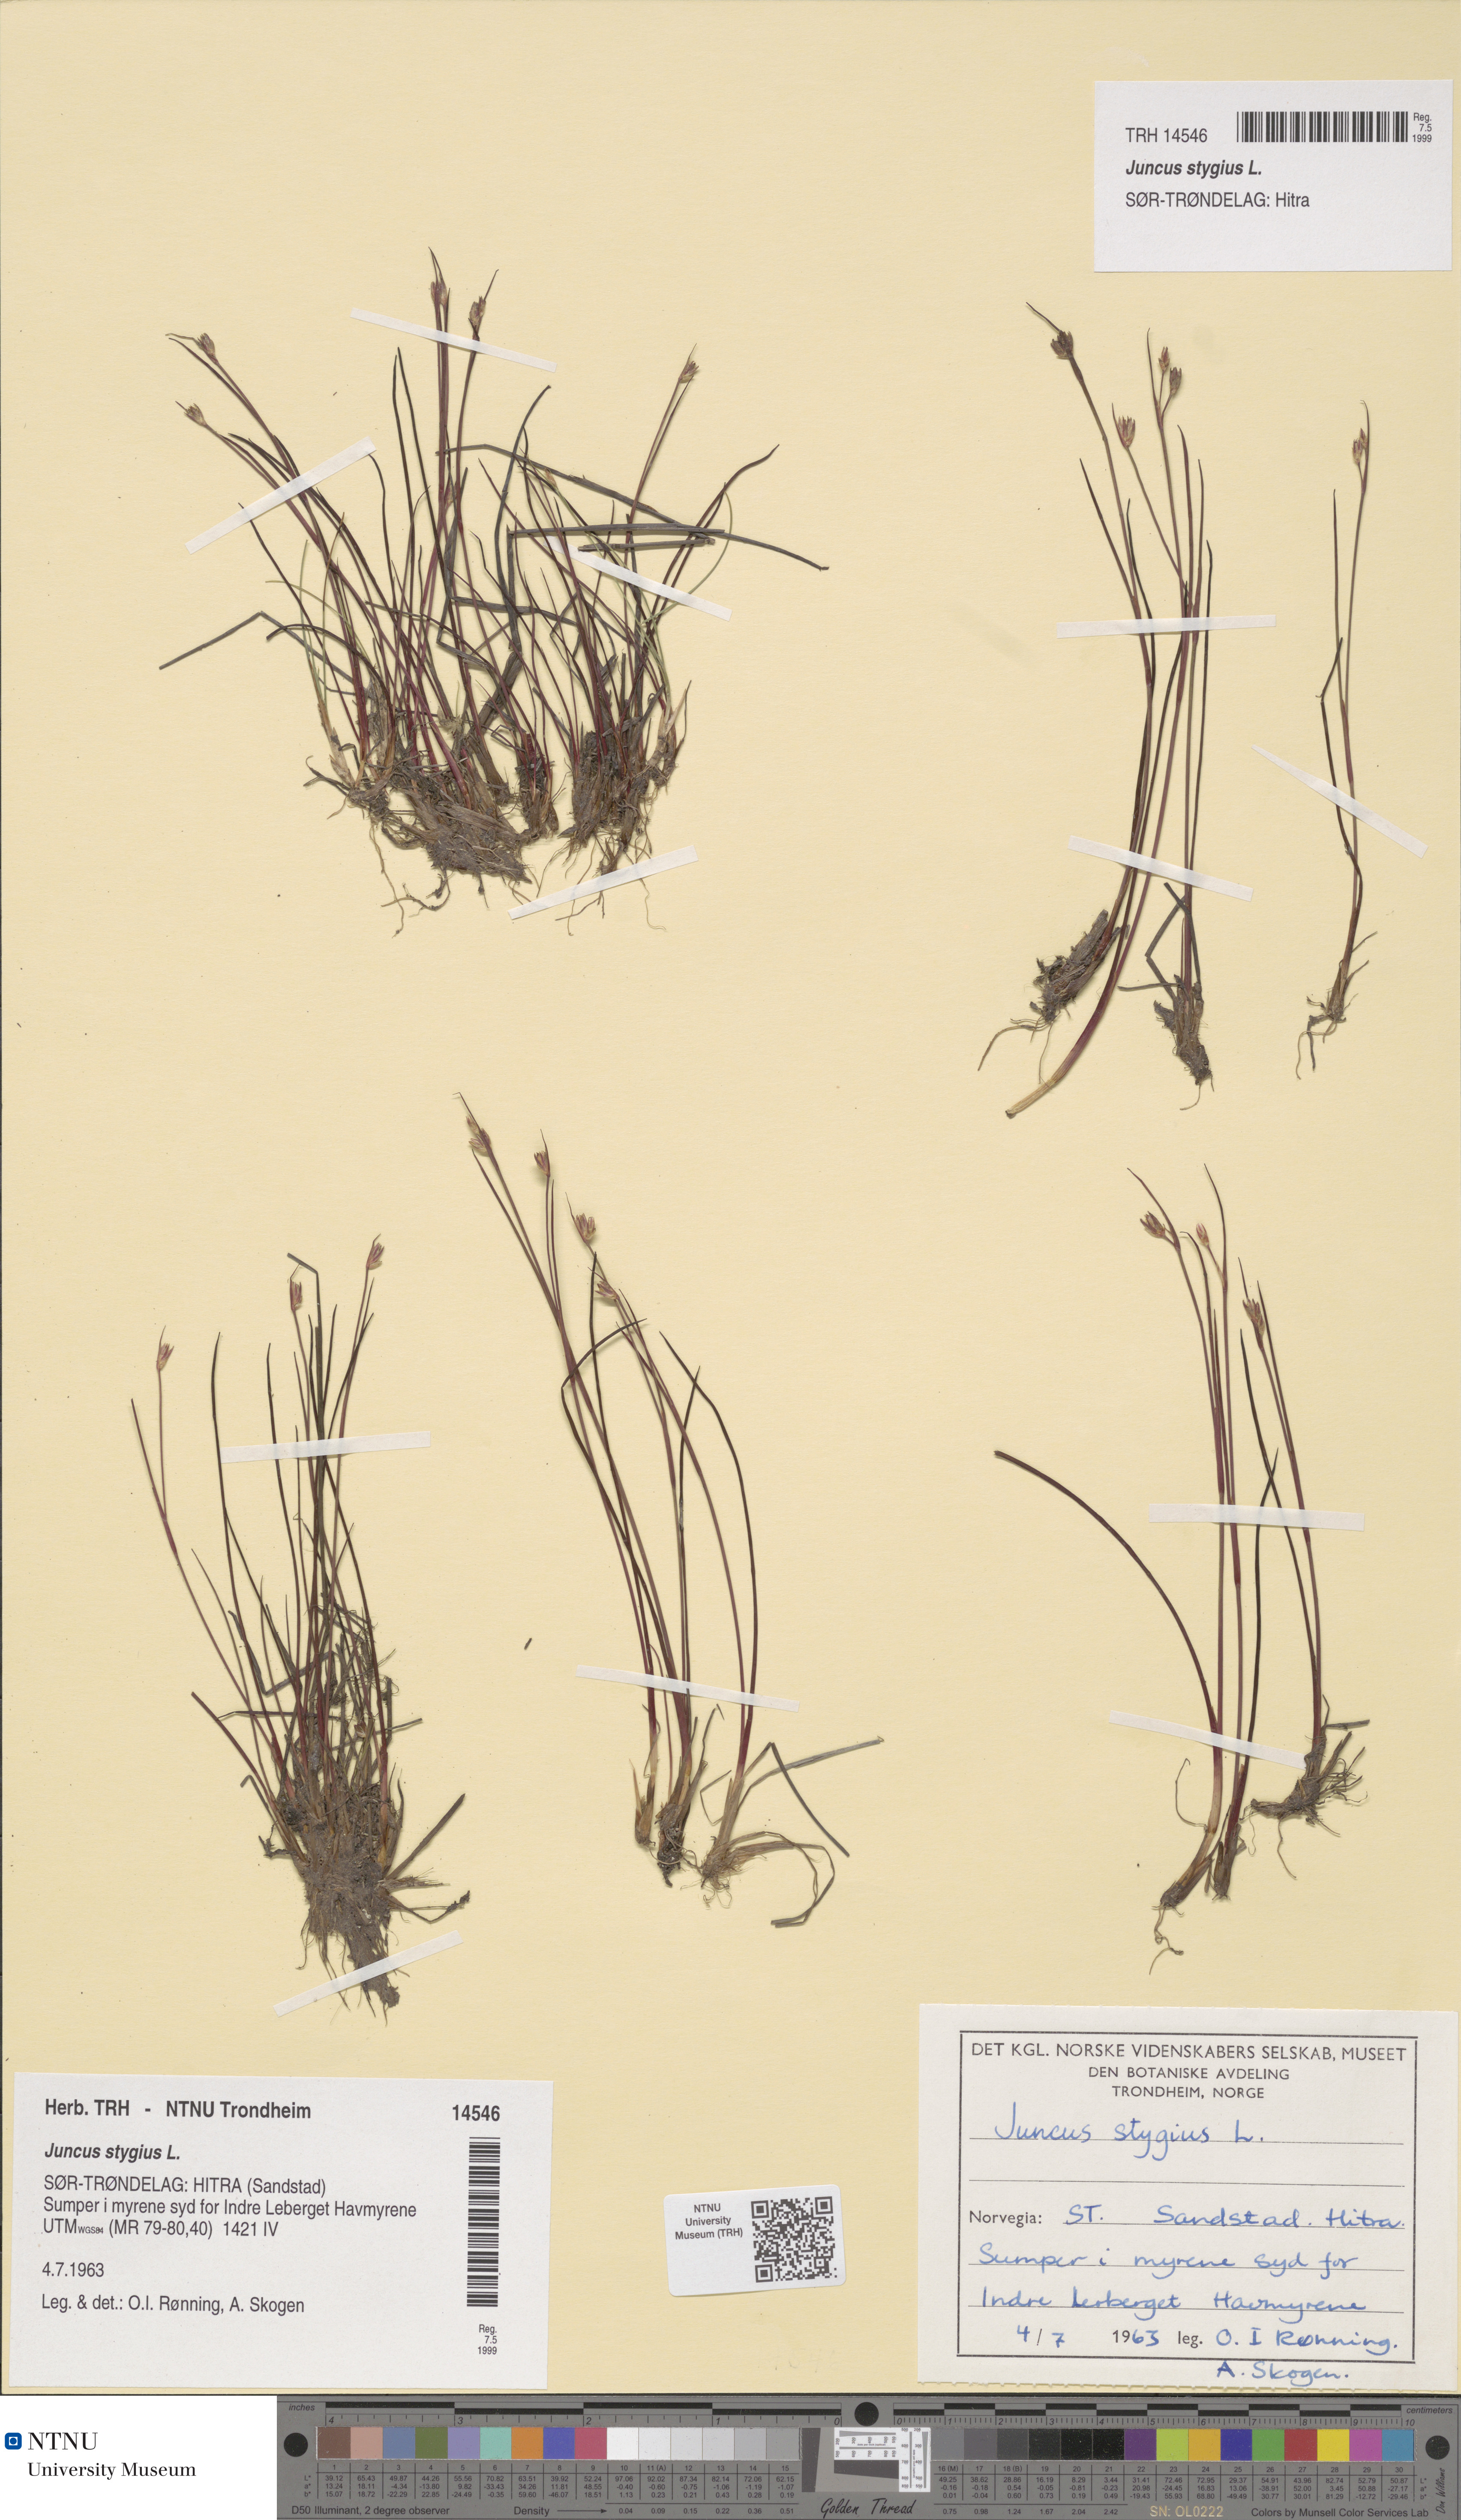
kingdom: Plantae
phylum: Tracheophyta
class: Liliopsida
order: Poales
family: Juncaceae
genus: Juncus
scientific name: Juncus stygius
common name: Bog rush
